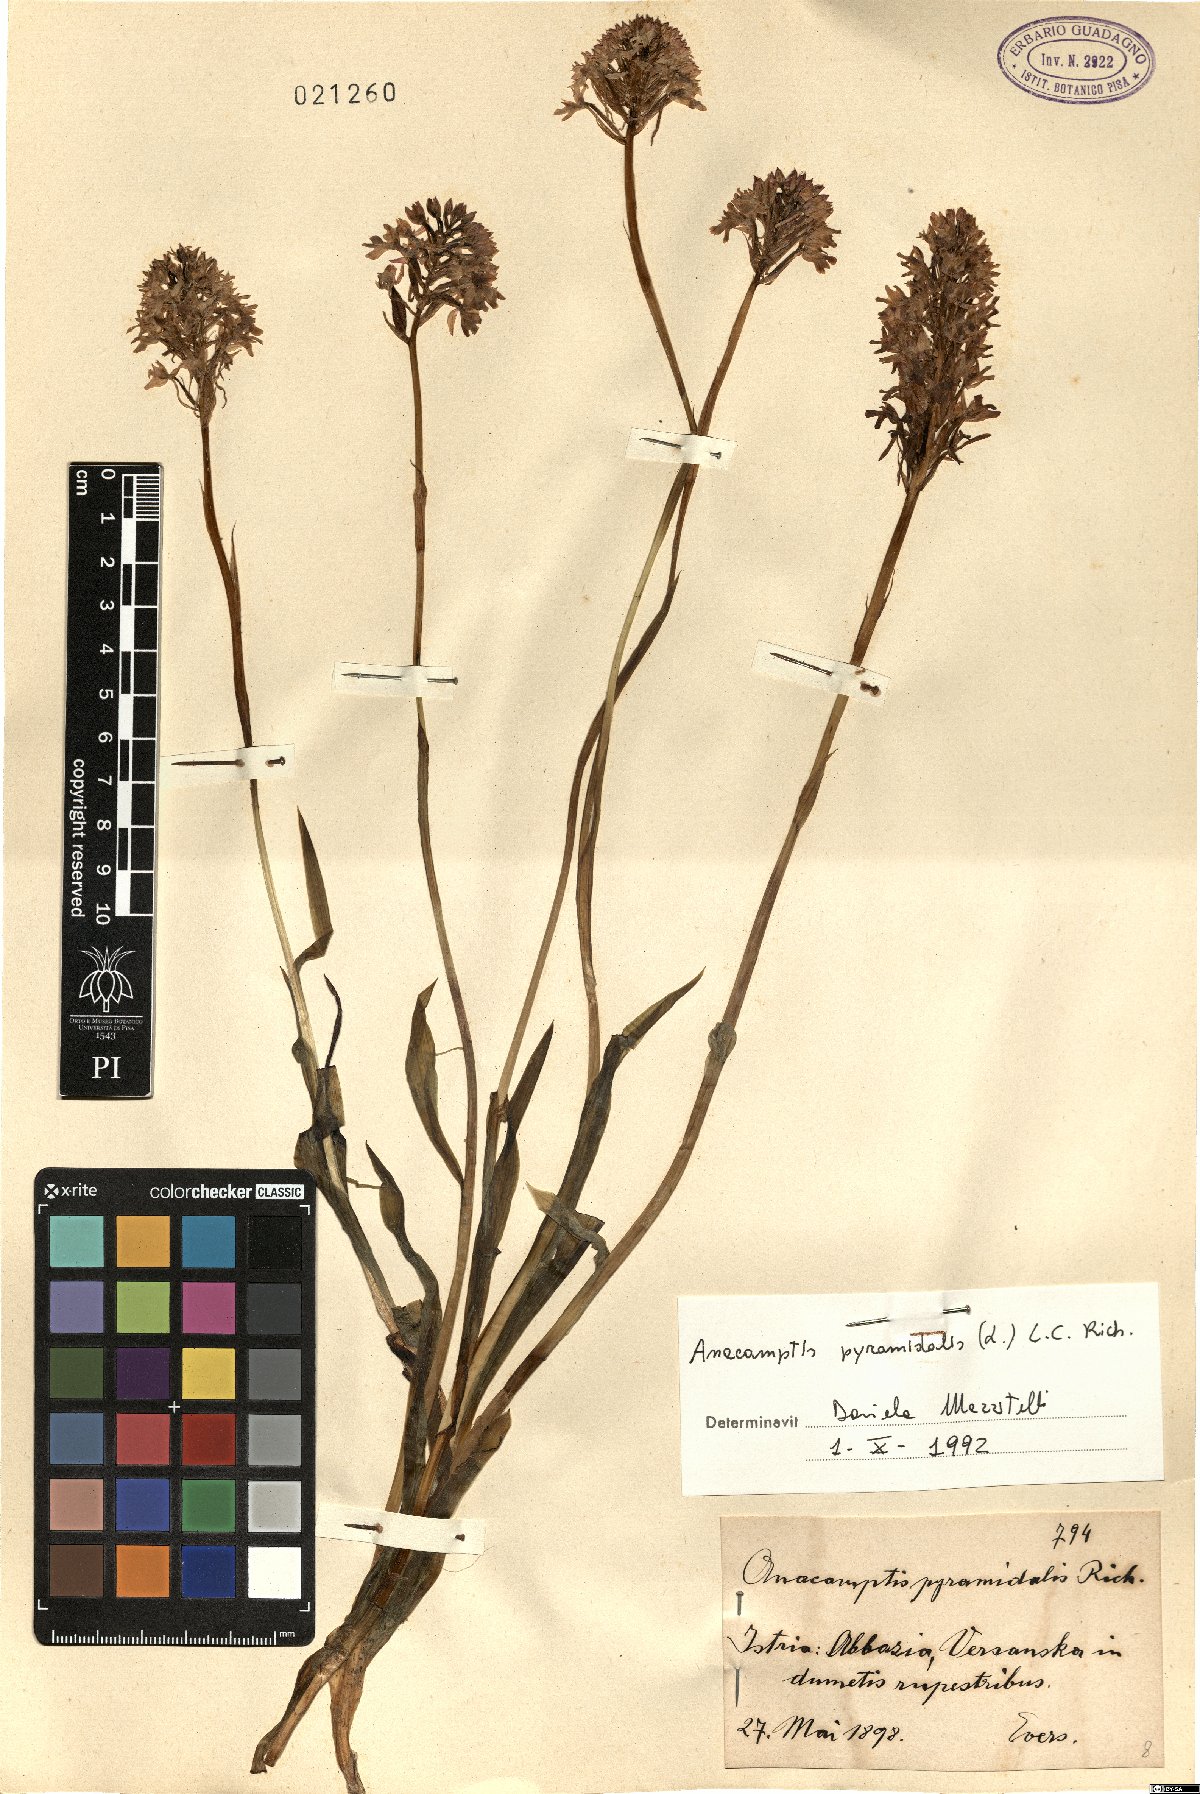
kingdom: Plantae
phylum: Tracheophyta
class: Liliopsida
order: Asparagales
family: Orchidaceae
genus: Anacamptis
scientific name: Anacamptis pyramidalis
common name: Pyramidal orchid
